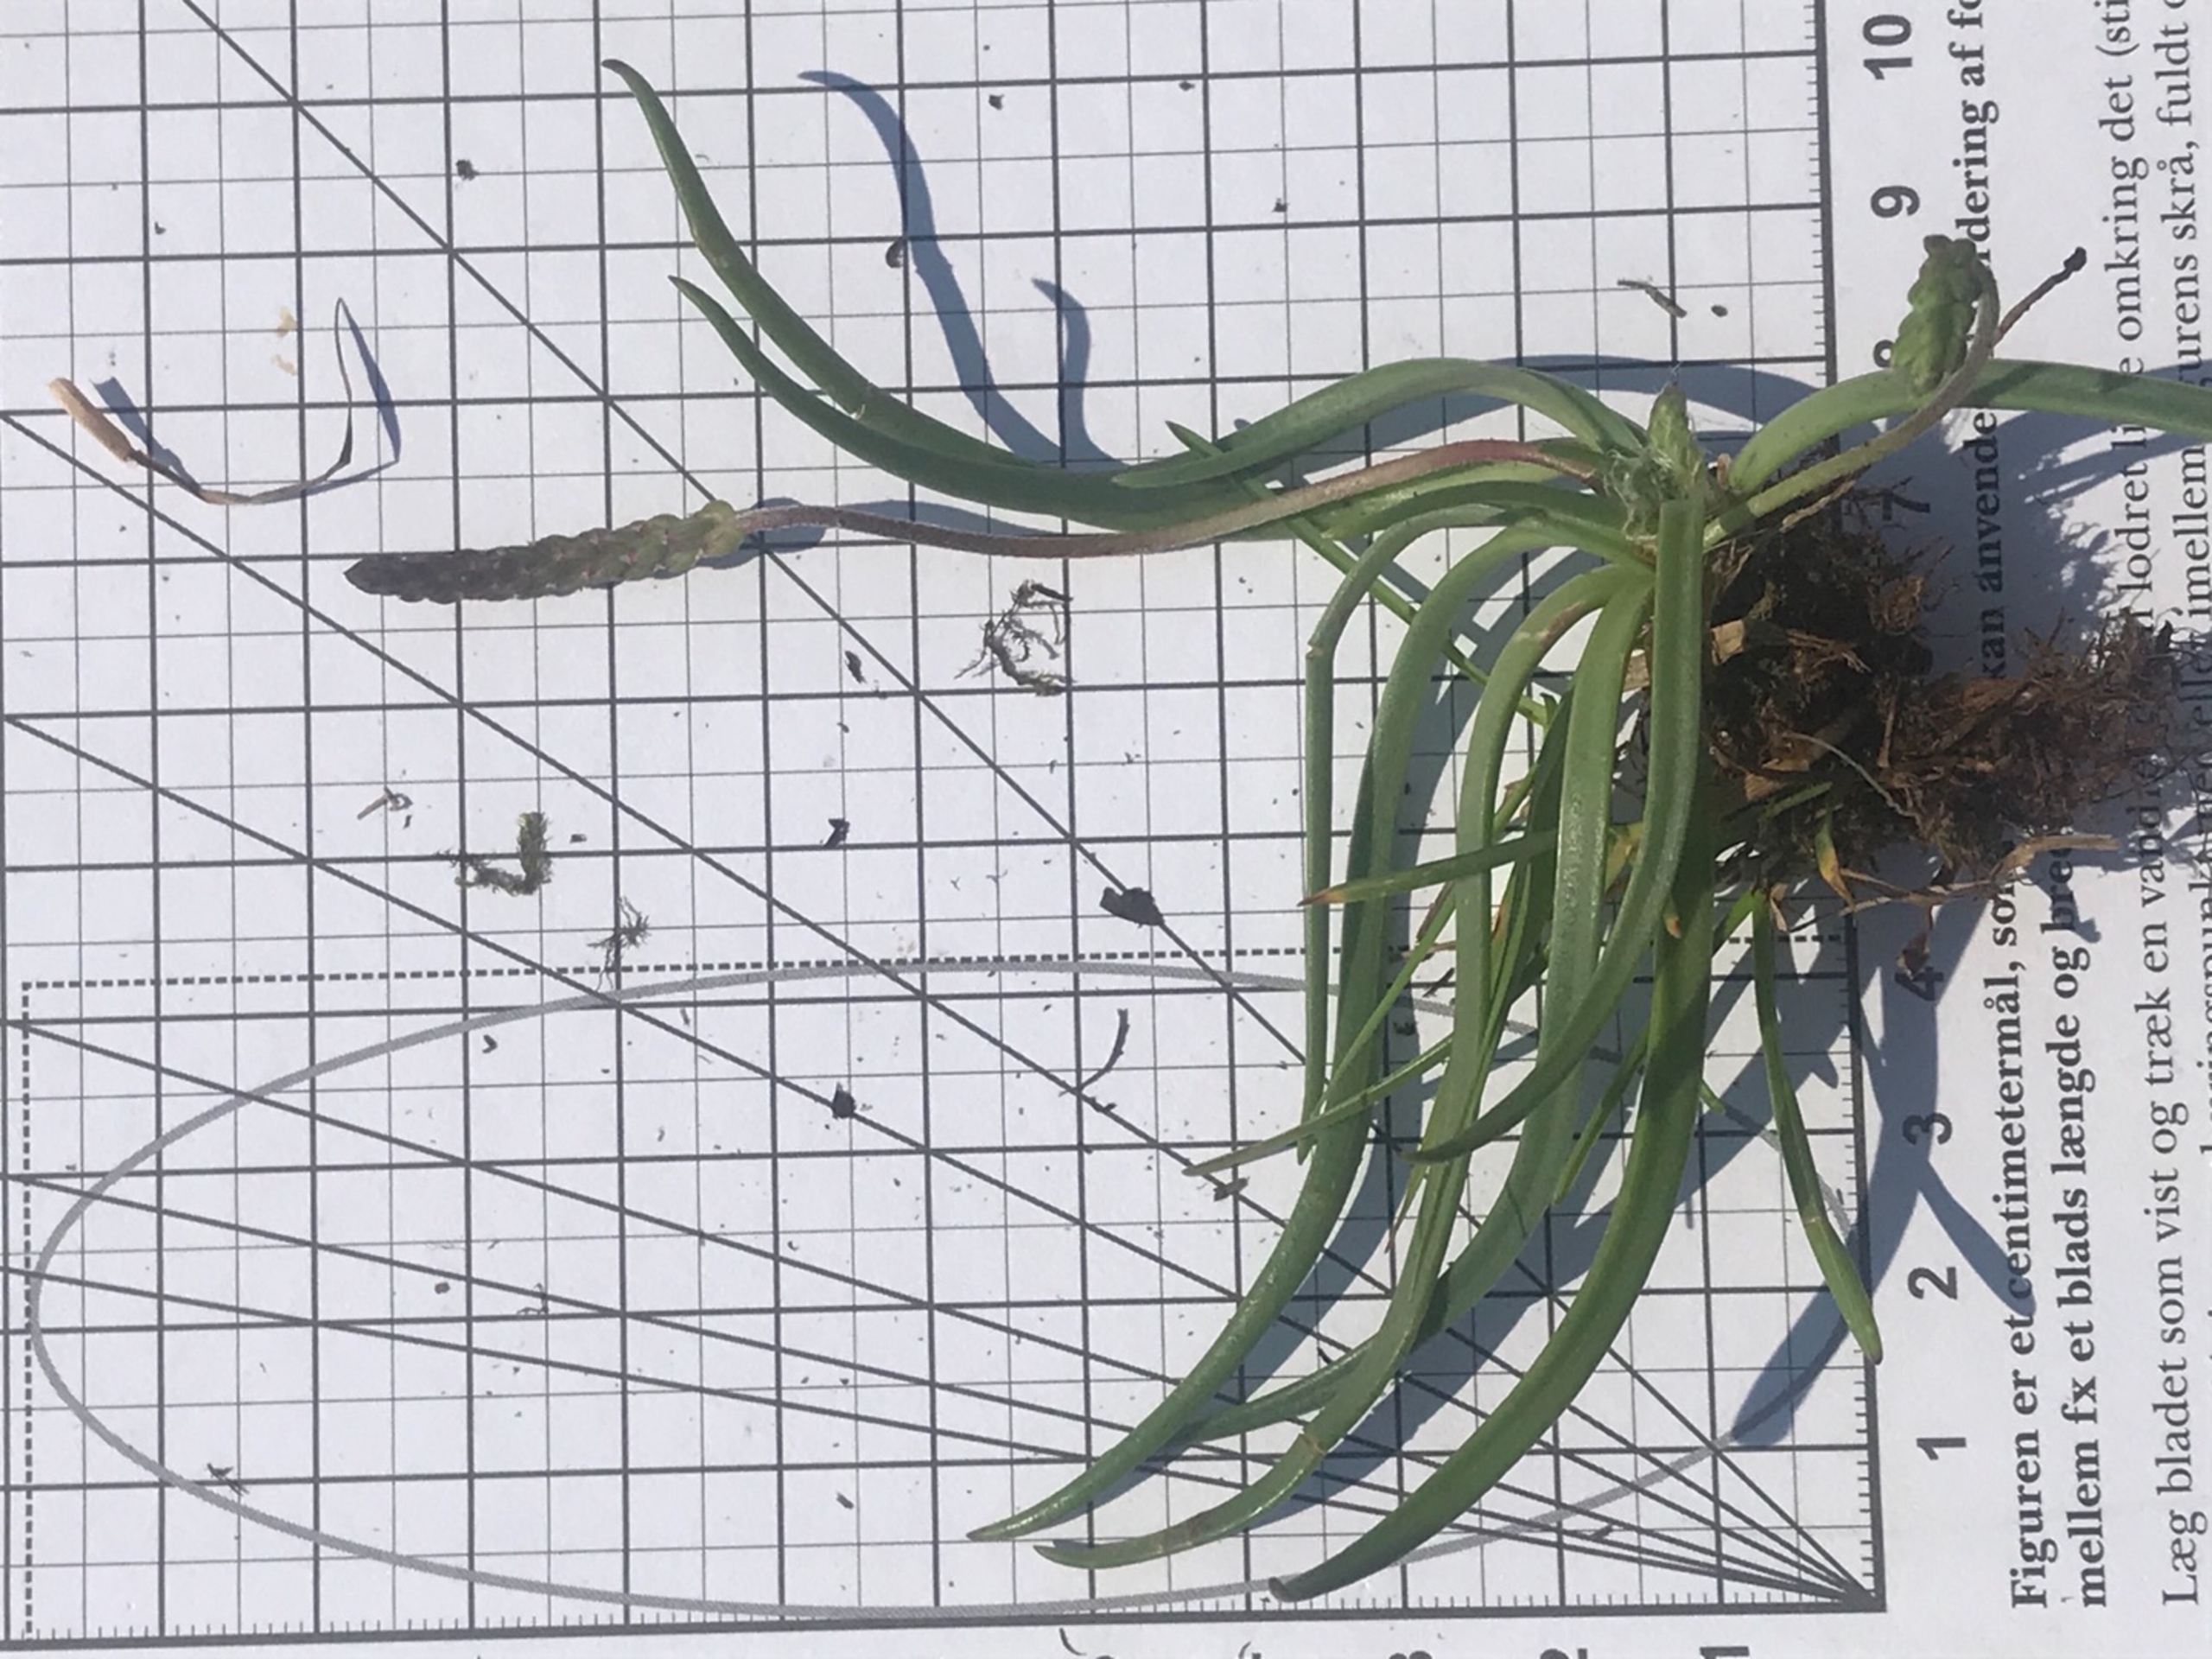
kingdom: Plantae
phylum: Tracheophyta
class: Magnoliopsida
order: Lamiales
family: Plantaginaceae
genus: Plantago
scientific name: Plantago maritima
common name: Strand-vejbred
